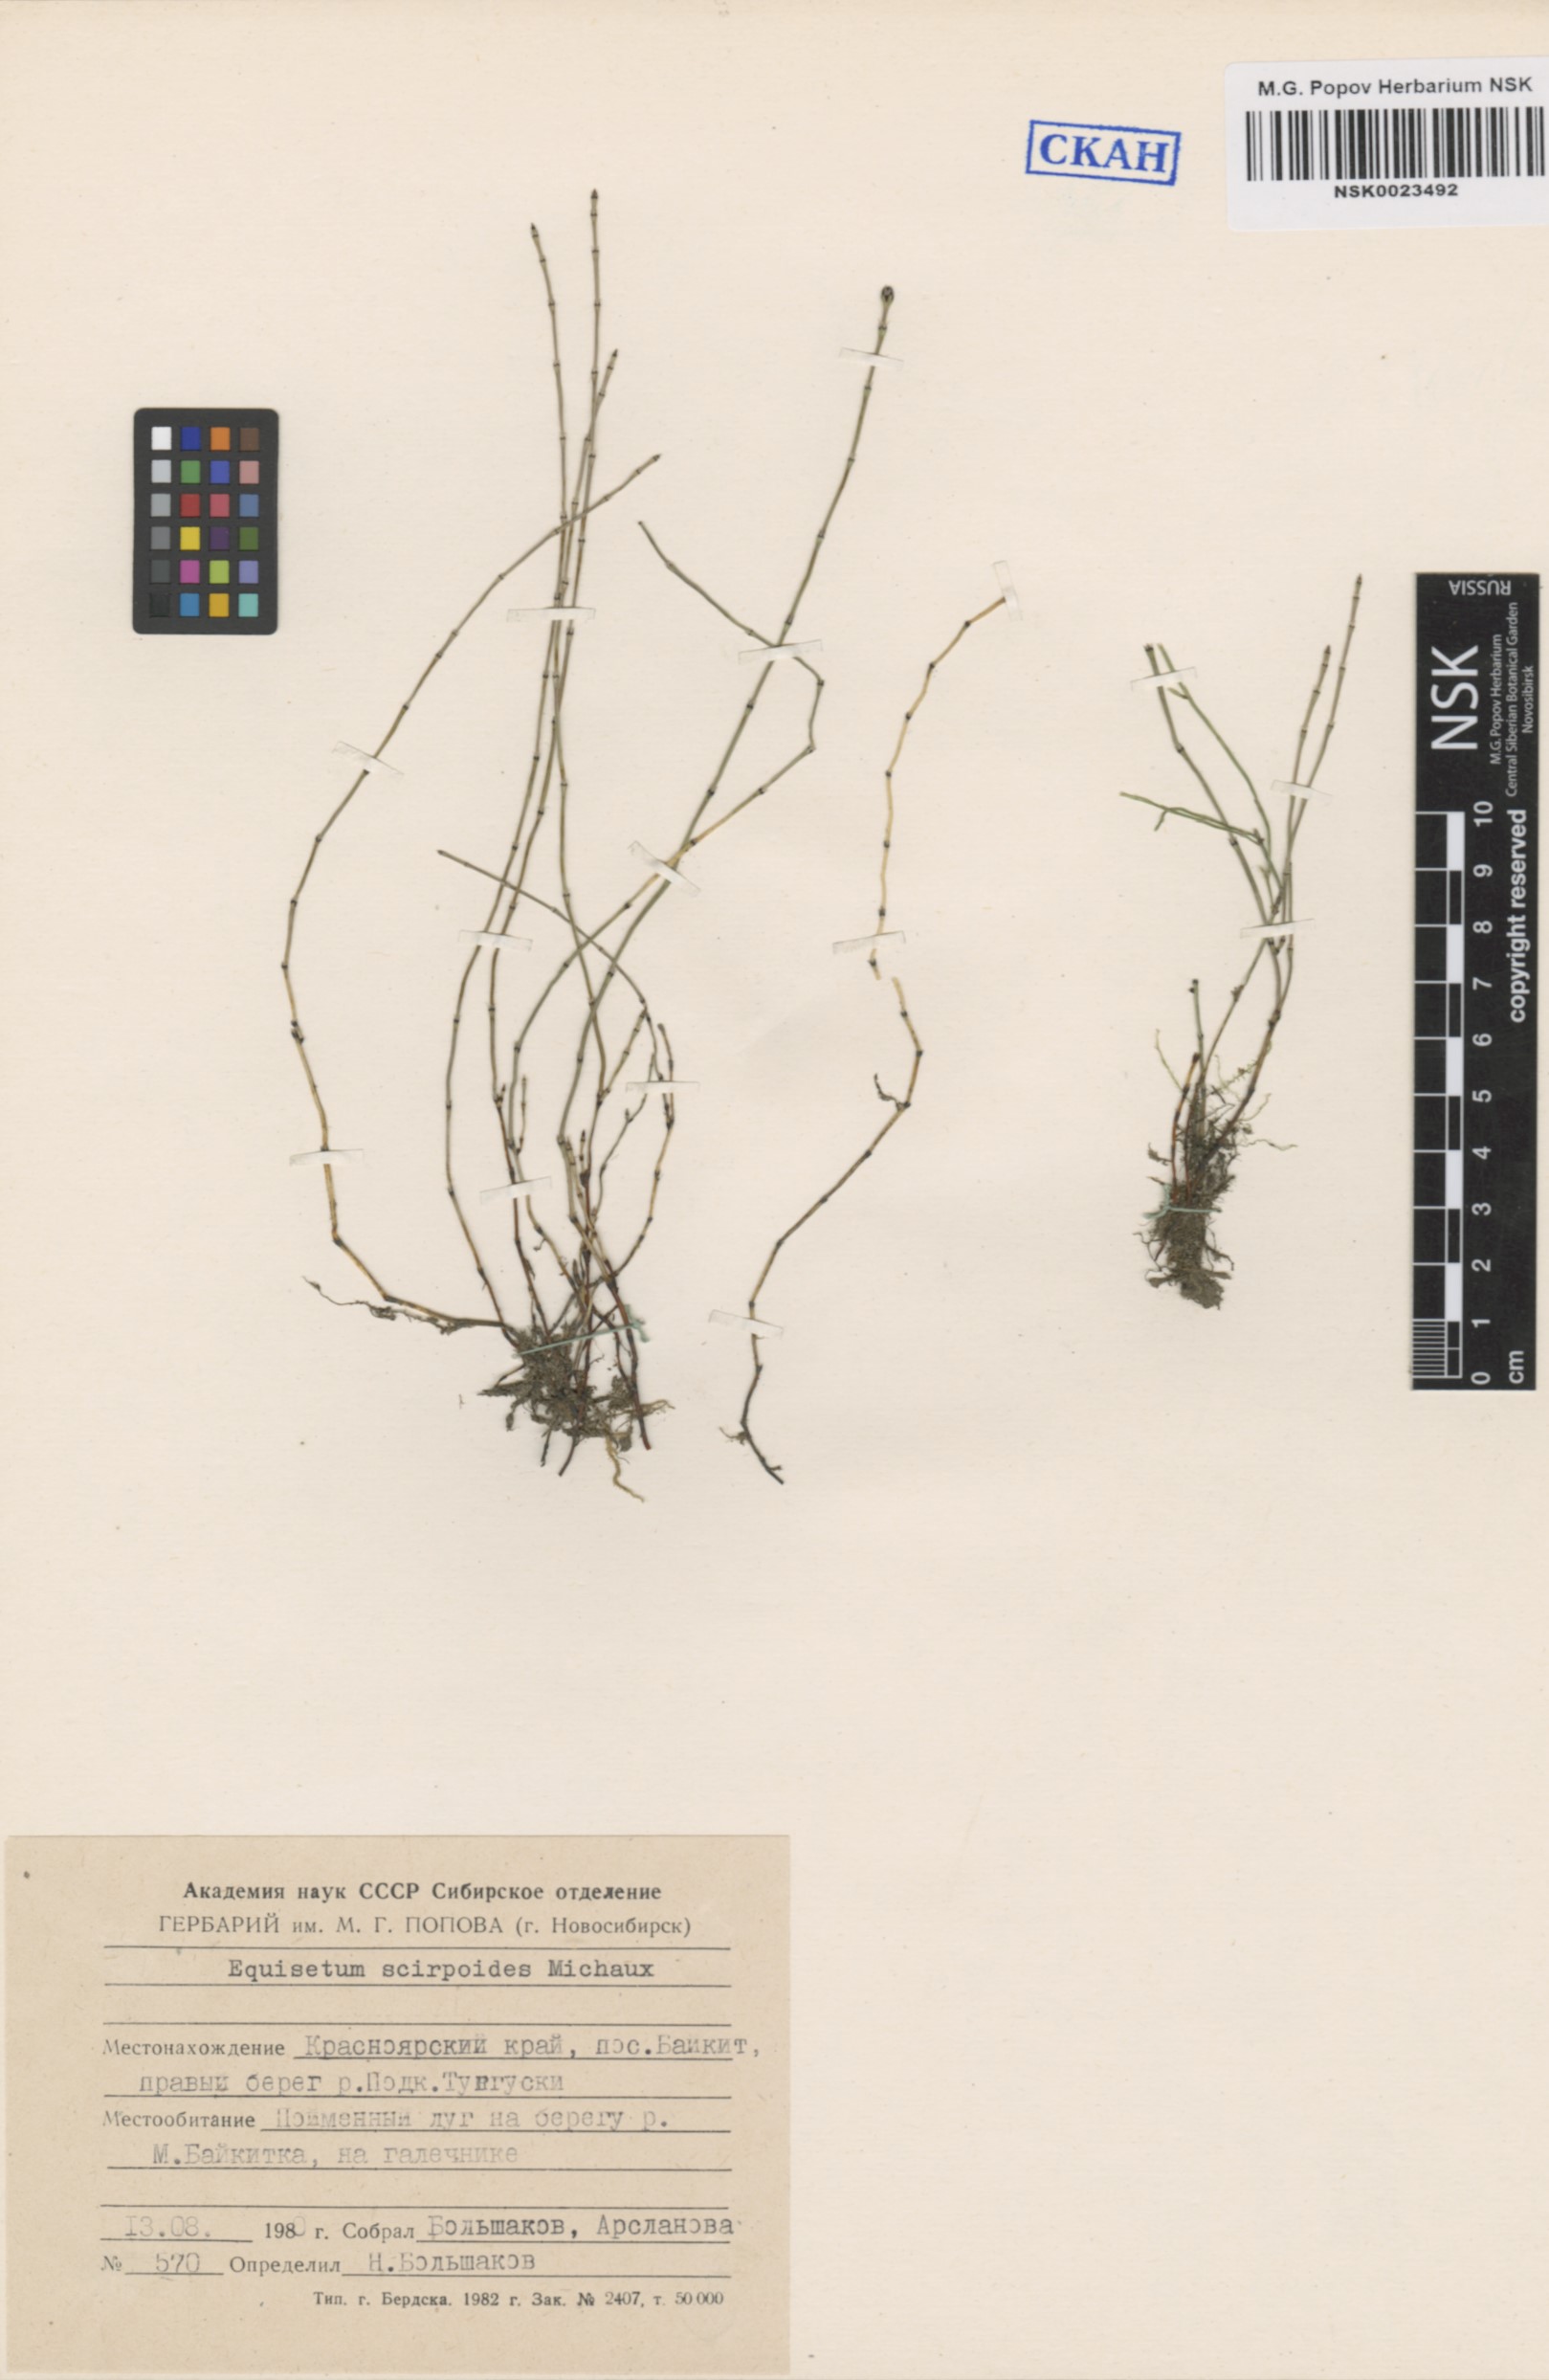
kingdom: Plantae
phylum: Tracheophyta
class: Polypodiopsida
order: Equisetales
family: Equisetaceae
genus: Equisetum
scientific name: Equisetum scirpoides
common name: Delicate horsetail
